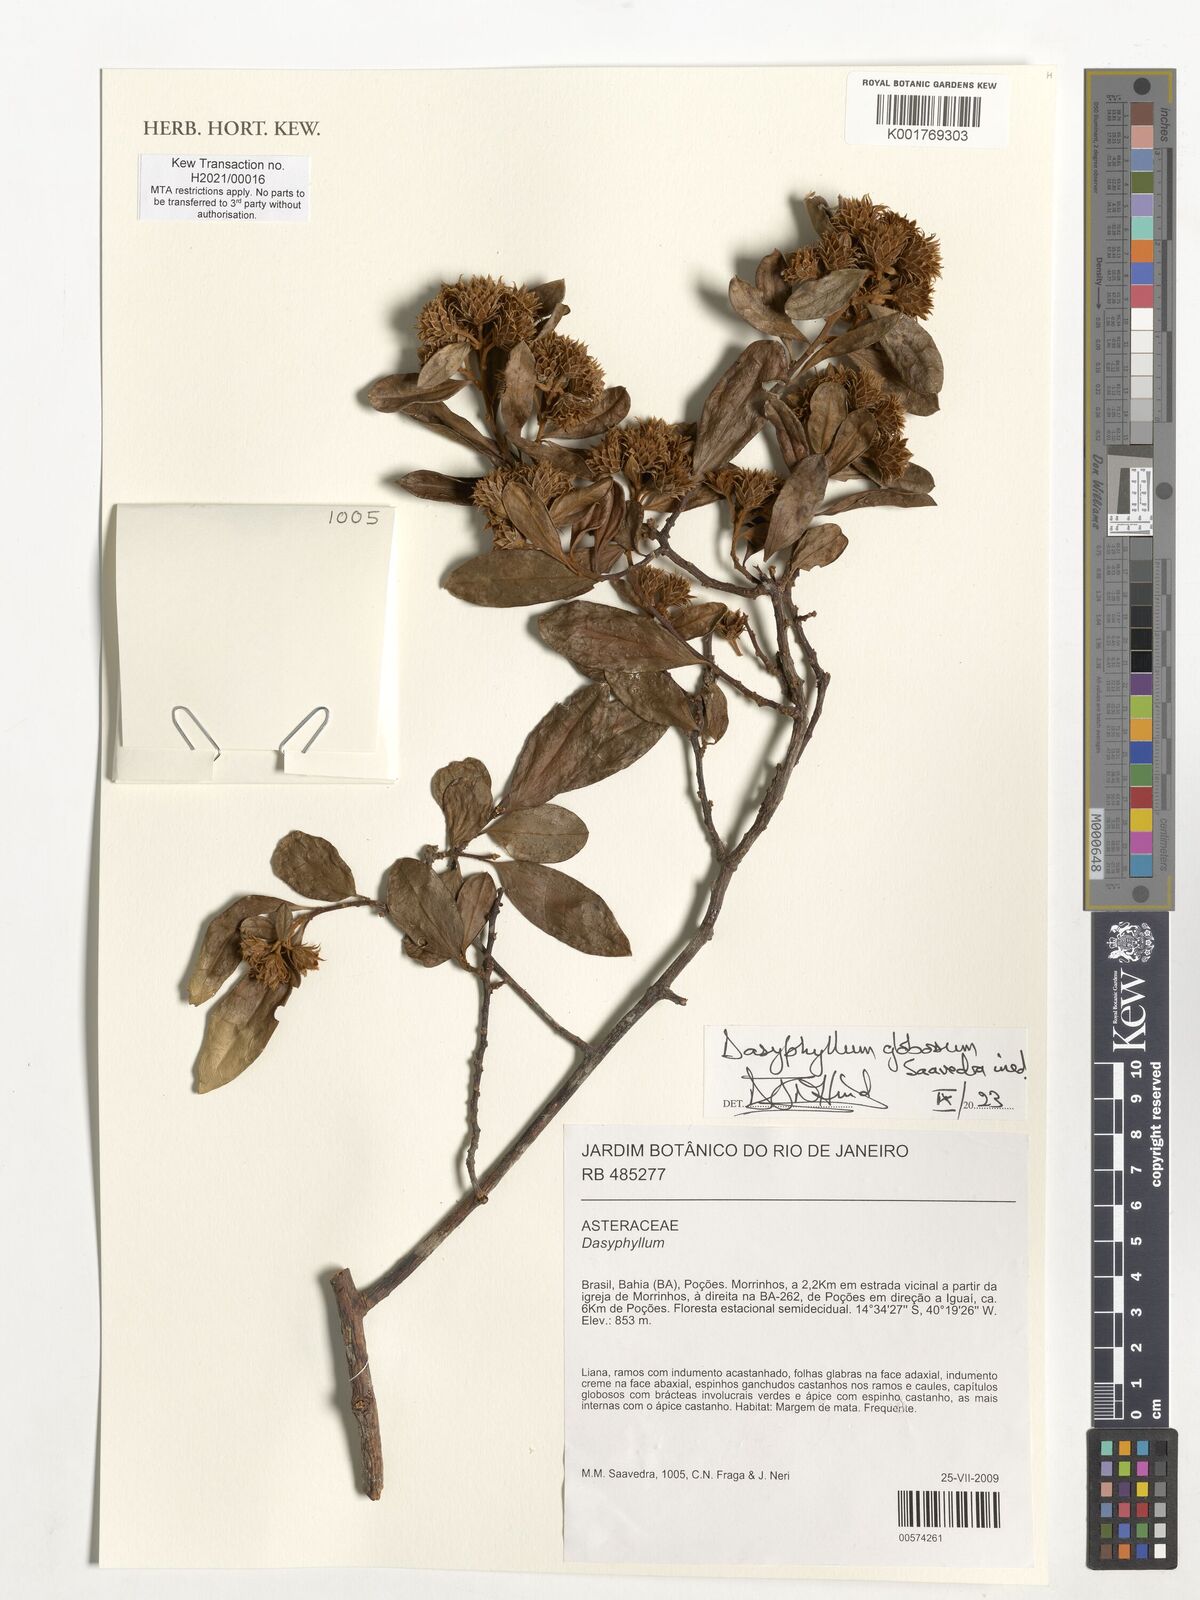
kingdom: Plantae
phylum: Tracheophyta
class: Magnoliopsida
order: Asterales
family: Asteraceae
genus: Dasyphyllum
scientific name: Dasyphyllum
